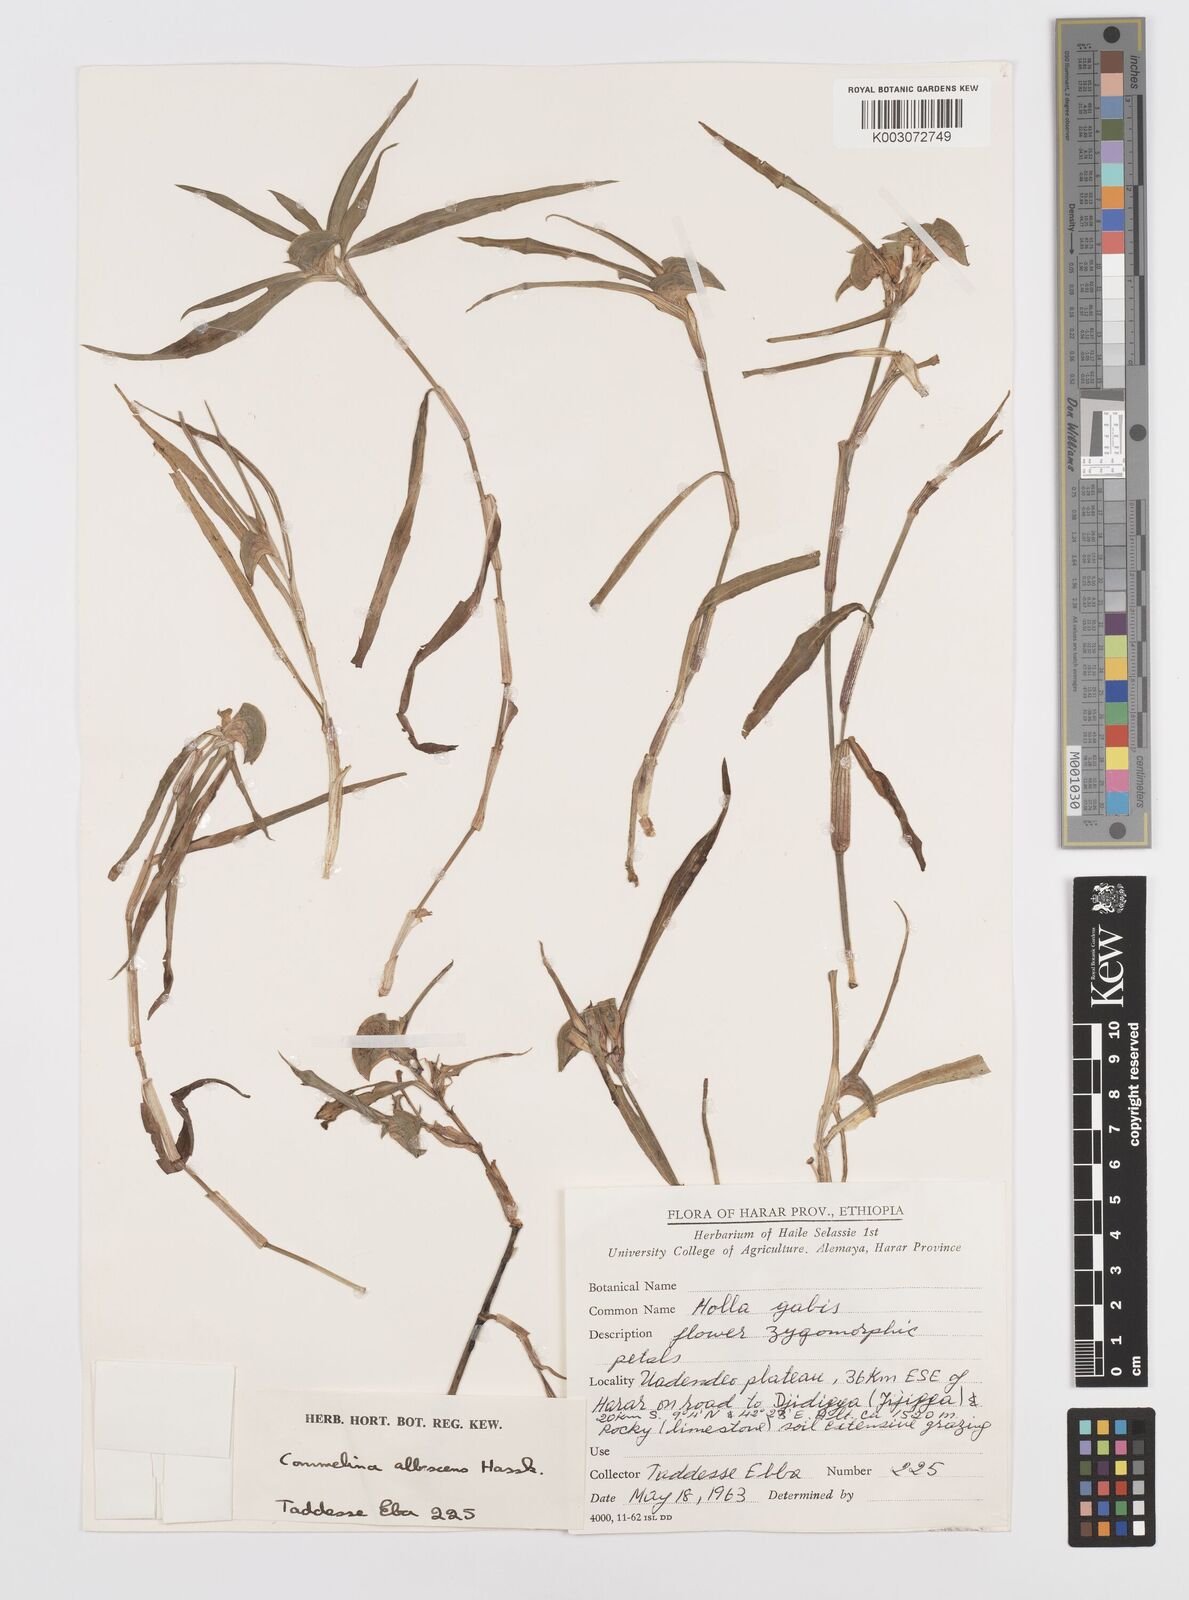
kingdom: Plantae
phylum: Tracheophyta
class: Liliopsida
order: Commelinales
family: Commelinaceae
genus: Commelina
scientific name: Commelina albescens
